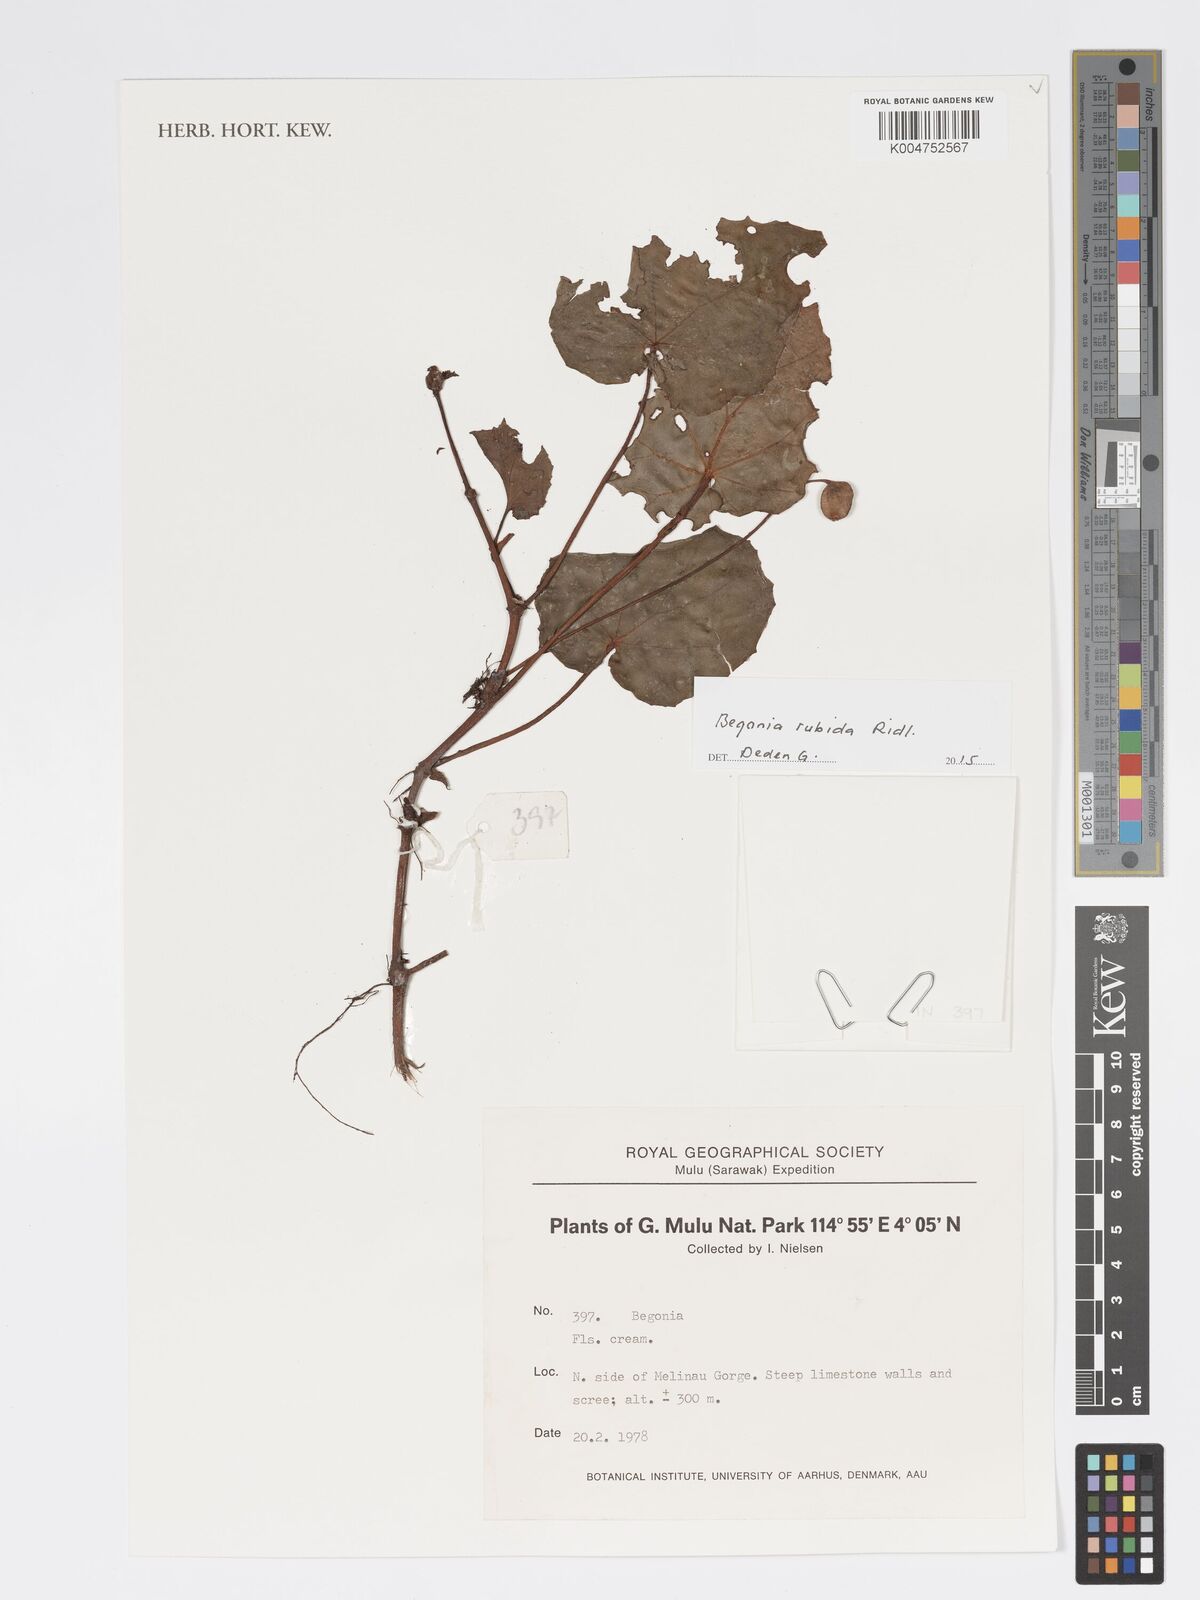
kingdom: Plantae
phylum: Tracheophyta
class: Magnoliopsida
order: Cucurbitales
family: Begoniaceae
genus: Begonia
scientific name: Begonia rubida
